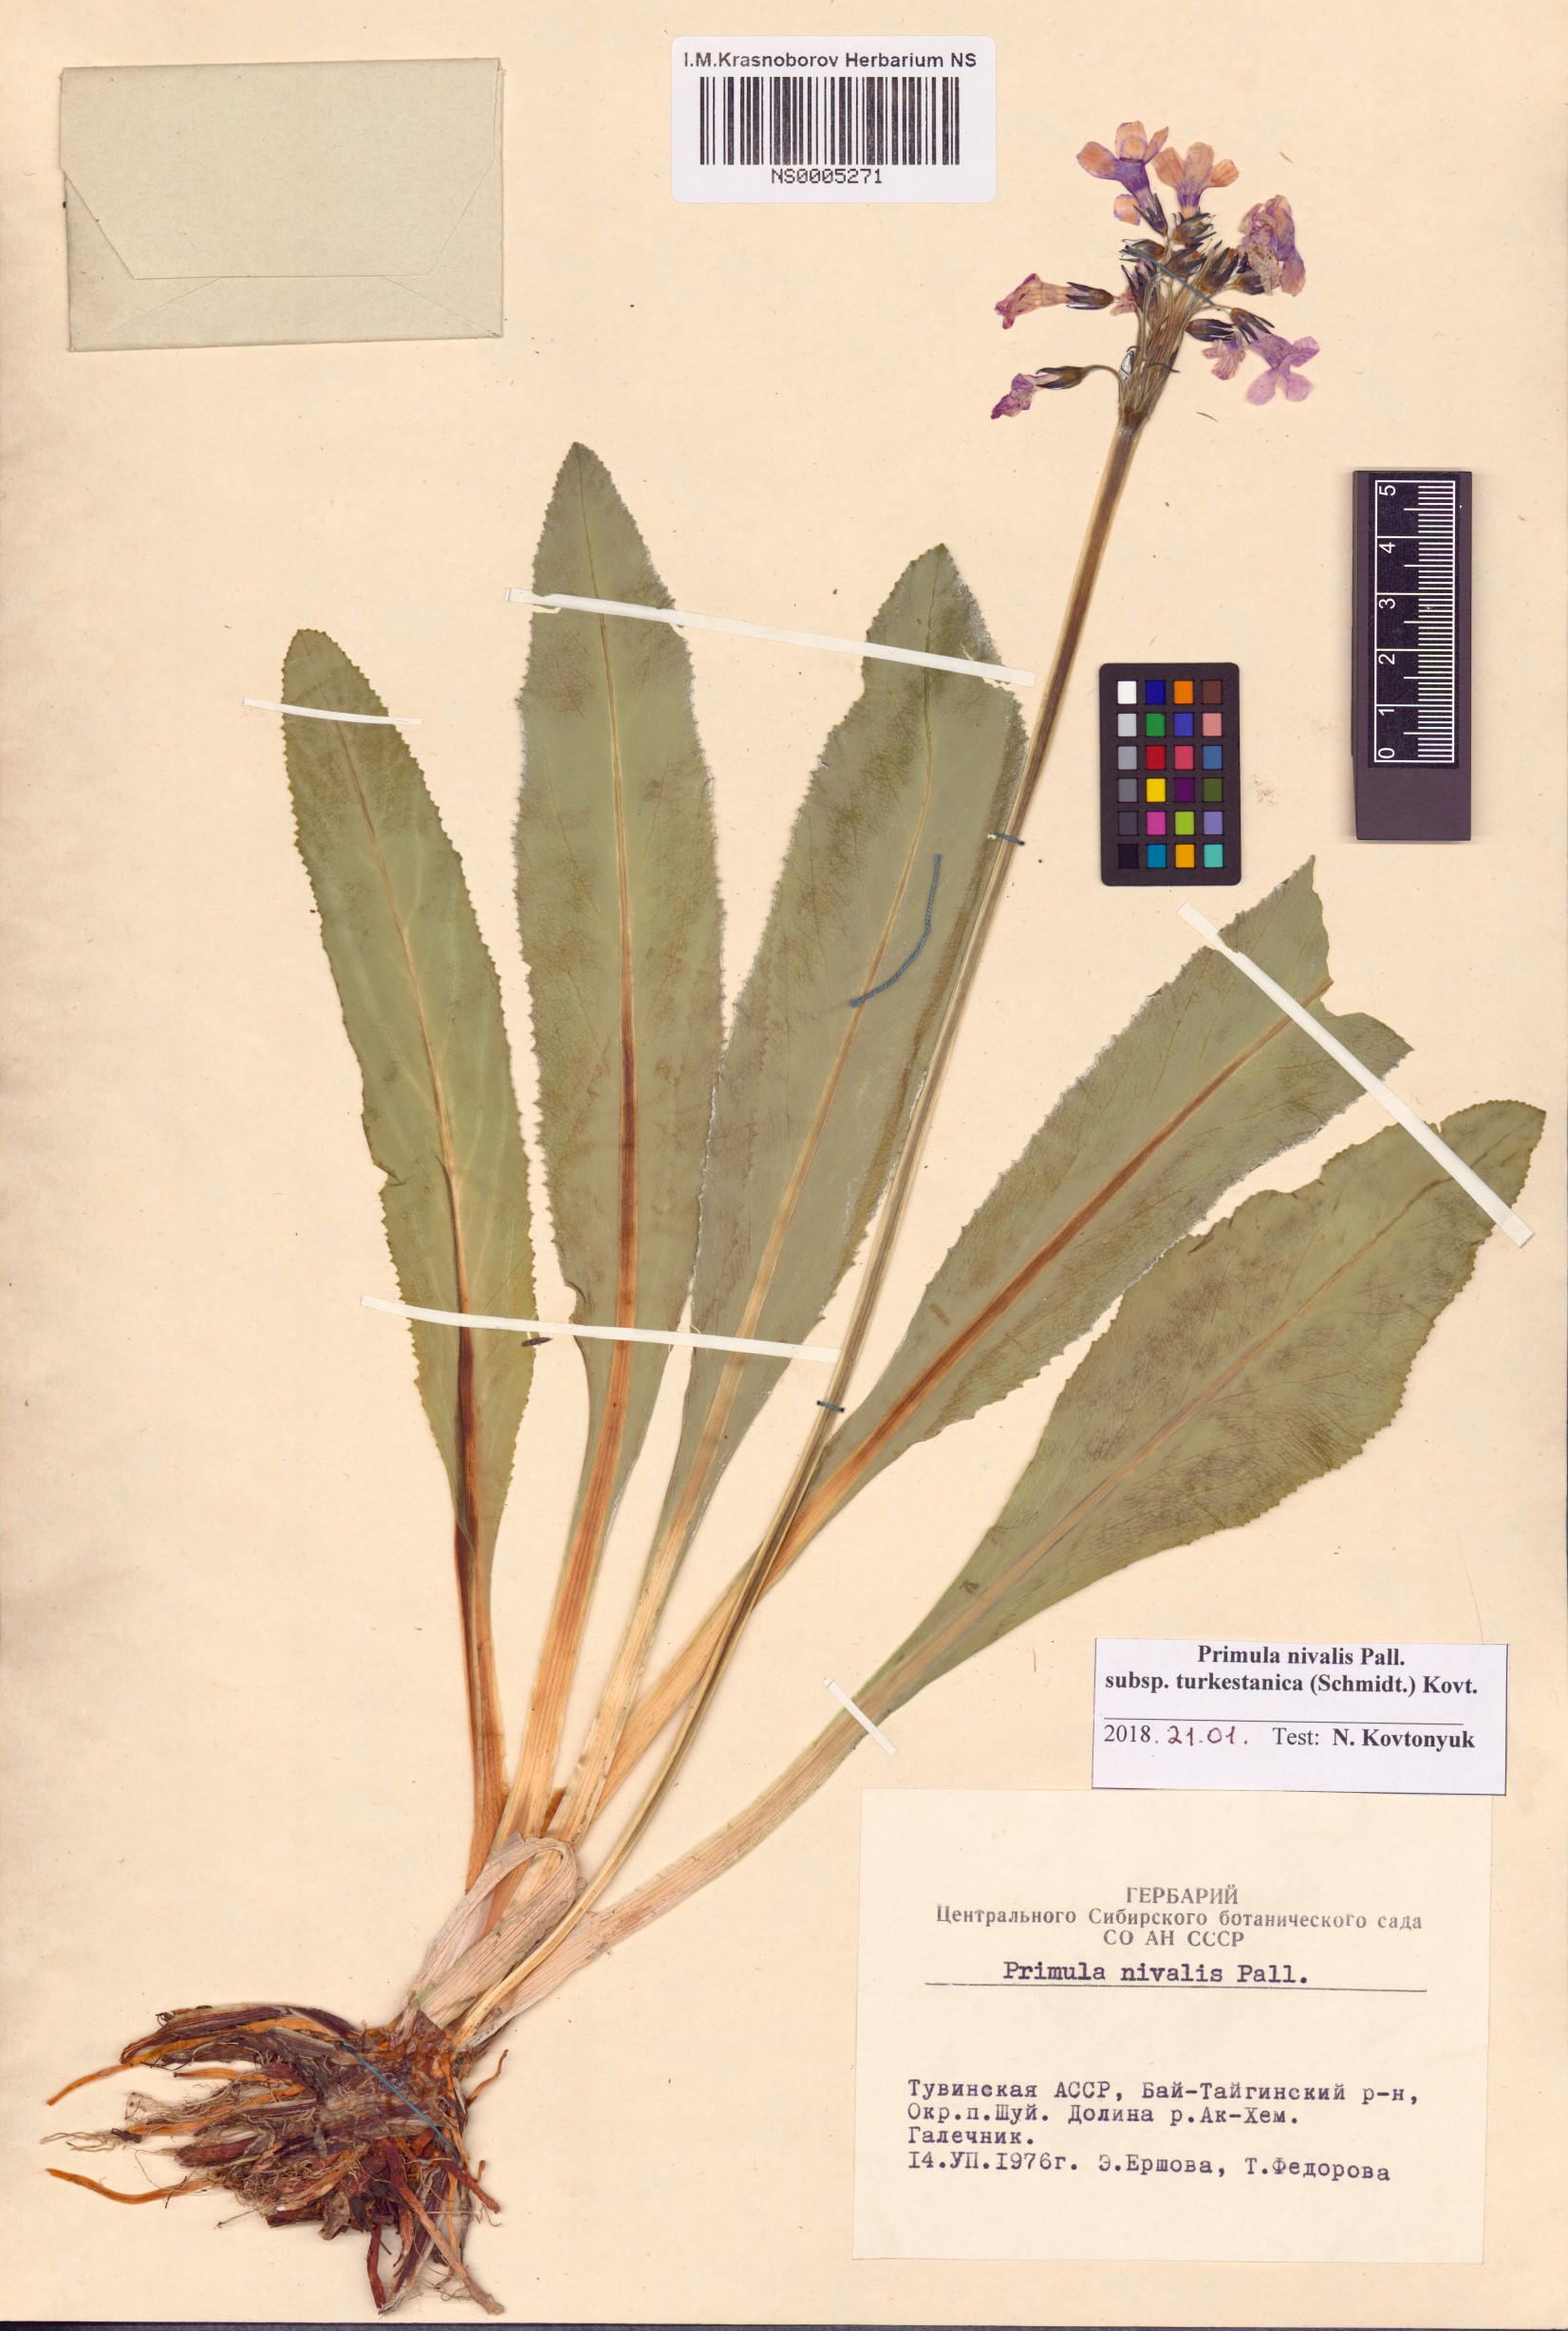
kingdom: Plantae
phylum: Tracheophyta
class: Magnoliopsida
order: Ericales
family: Primulaceae
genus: Primula
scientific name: Primula nivalis
